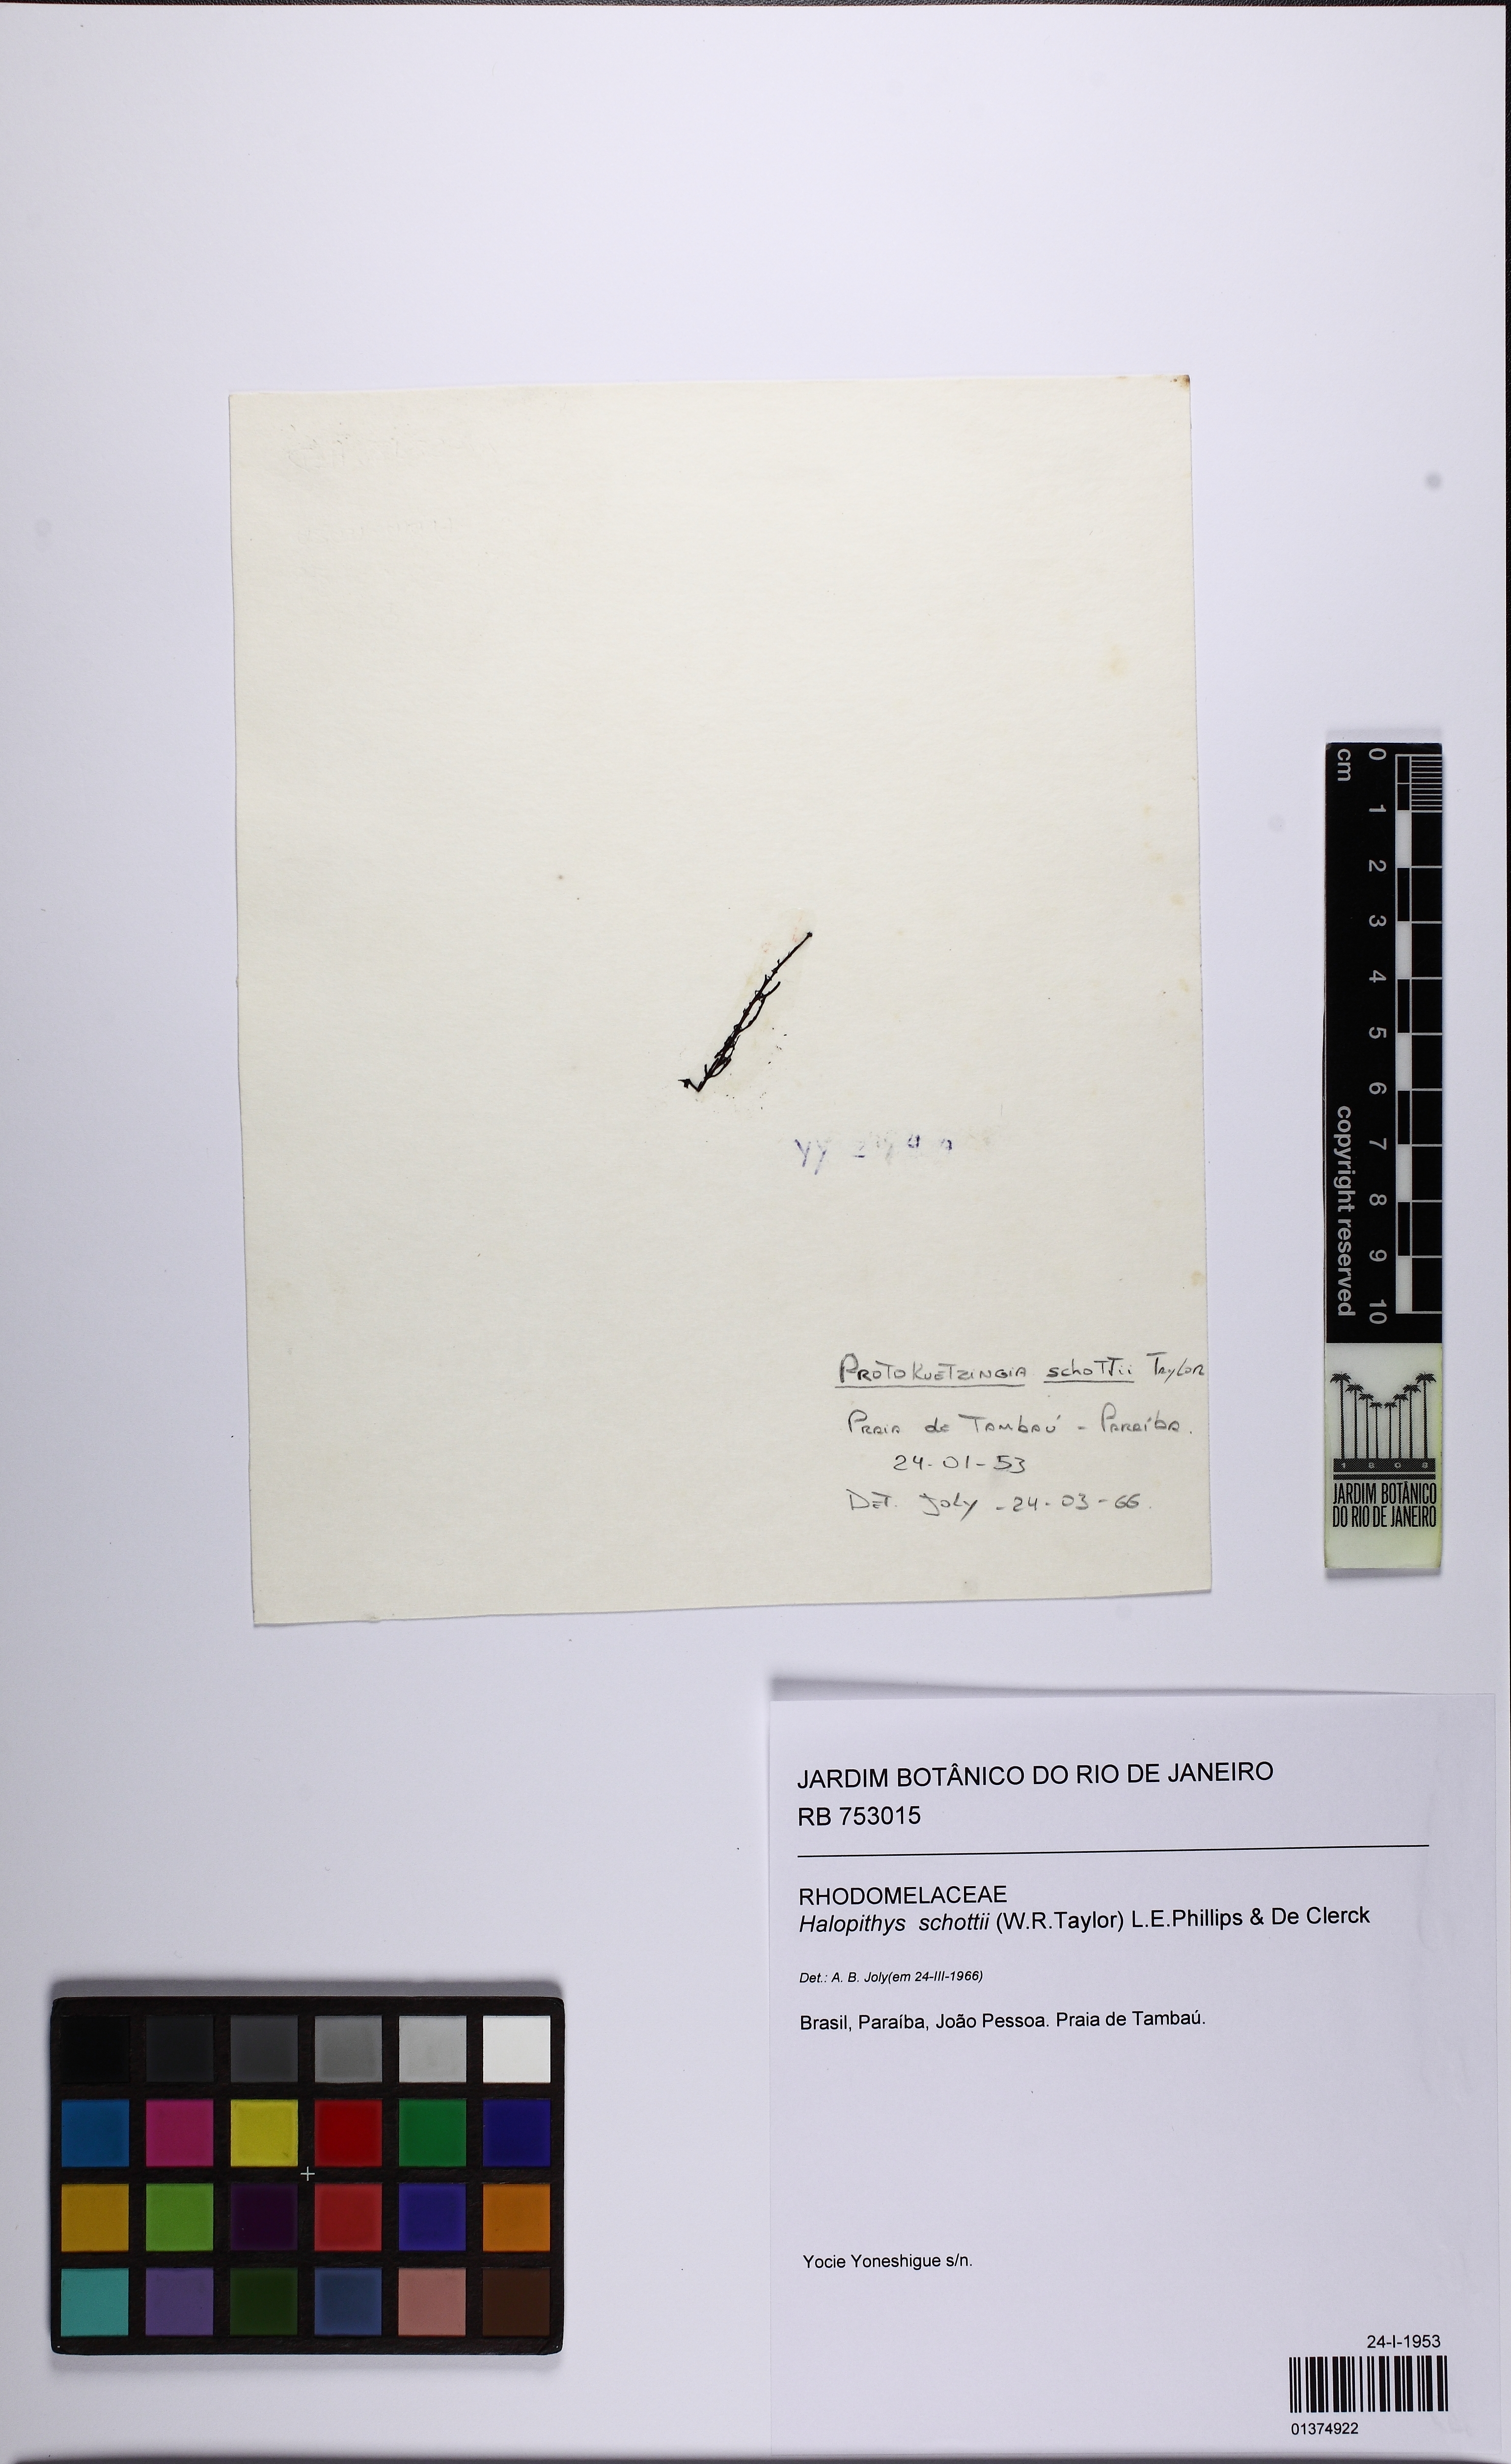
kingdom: Plantae
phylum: Rhodophyta
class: Florideophyceae
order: Ceramiales
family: Rhodomelaceae
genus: Halopithys
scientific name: Halopithys schottii
